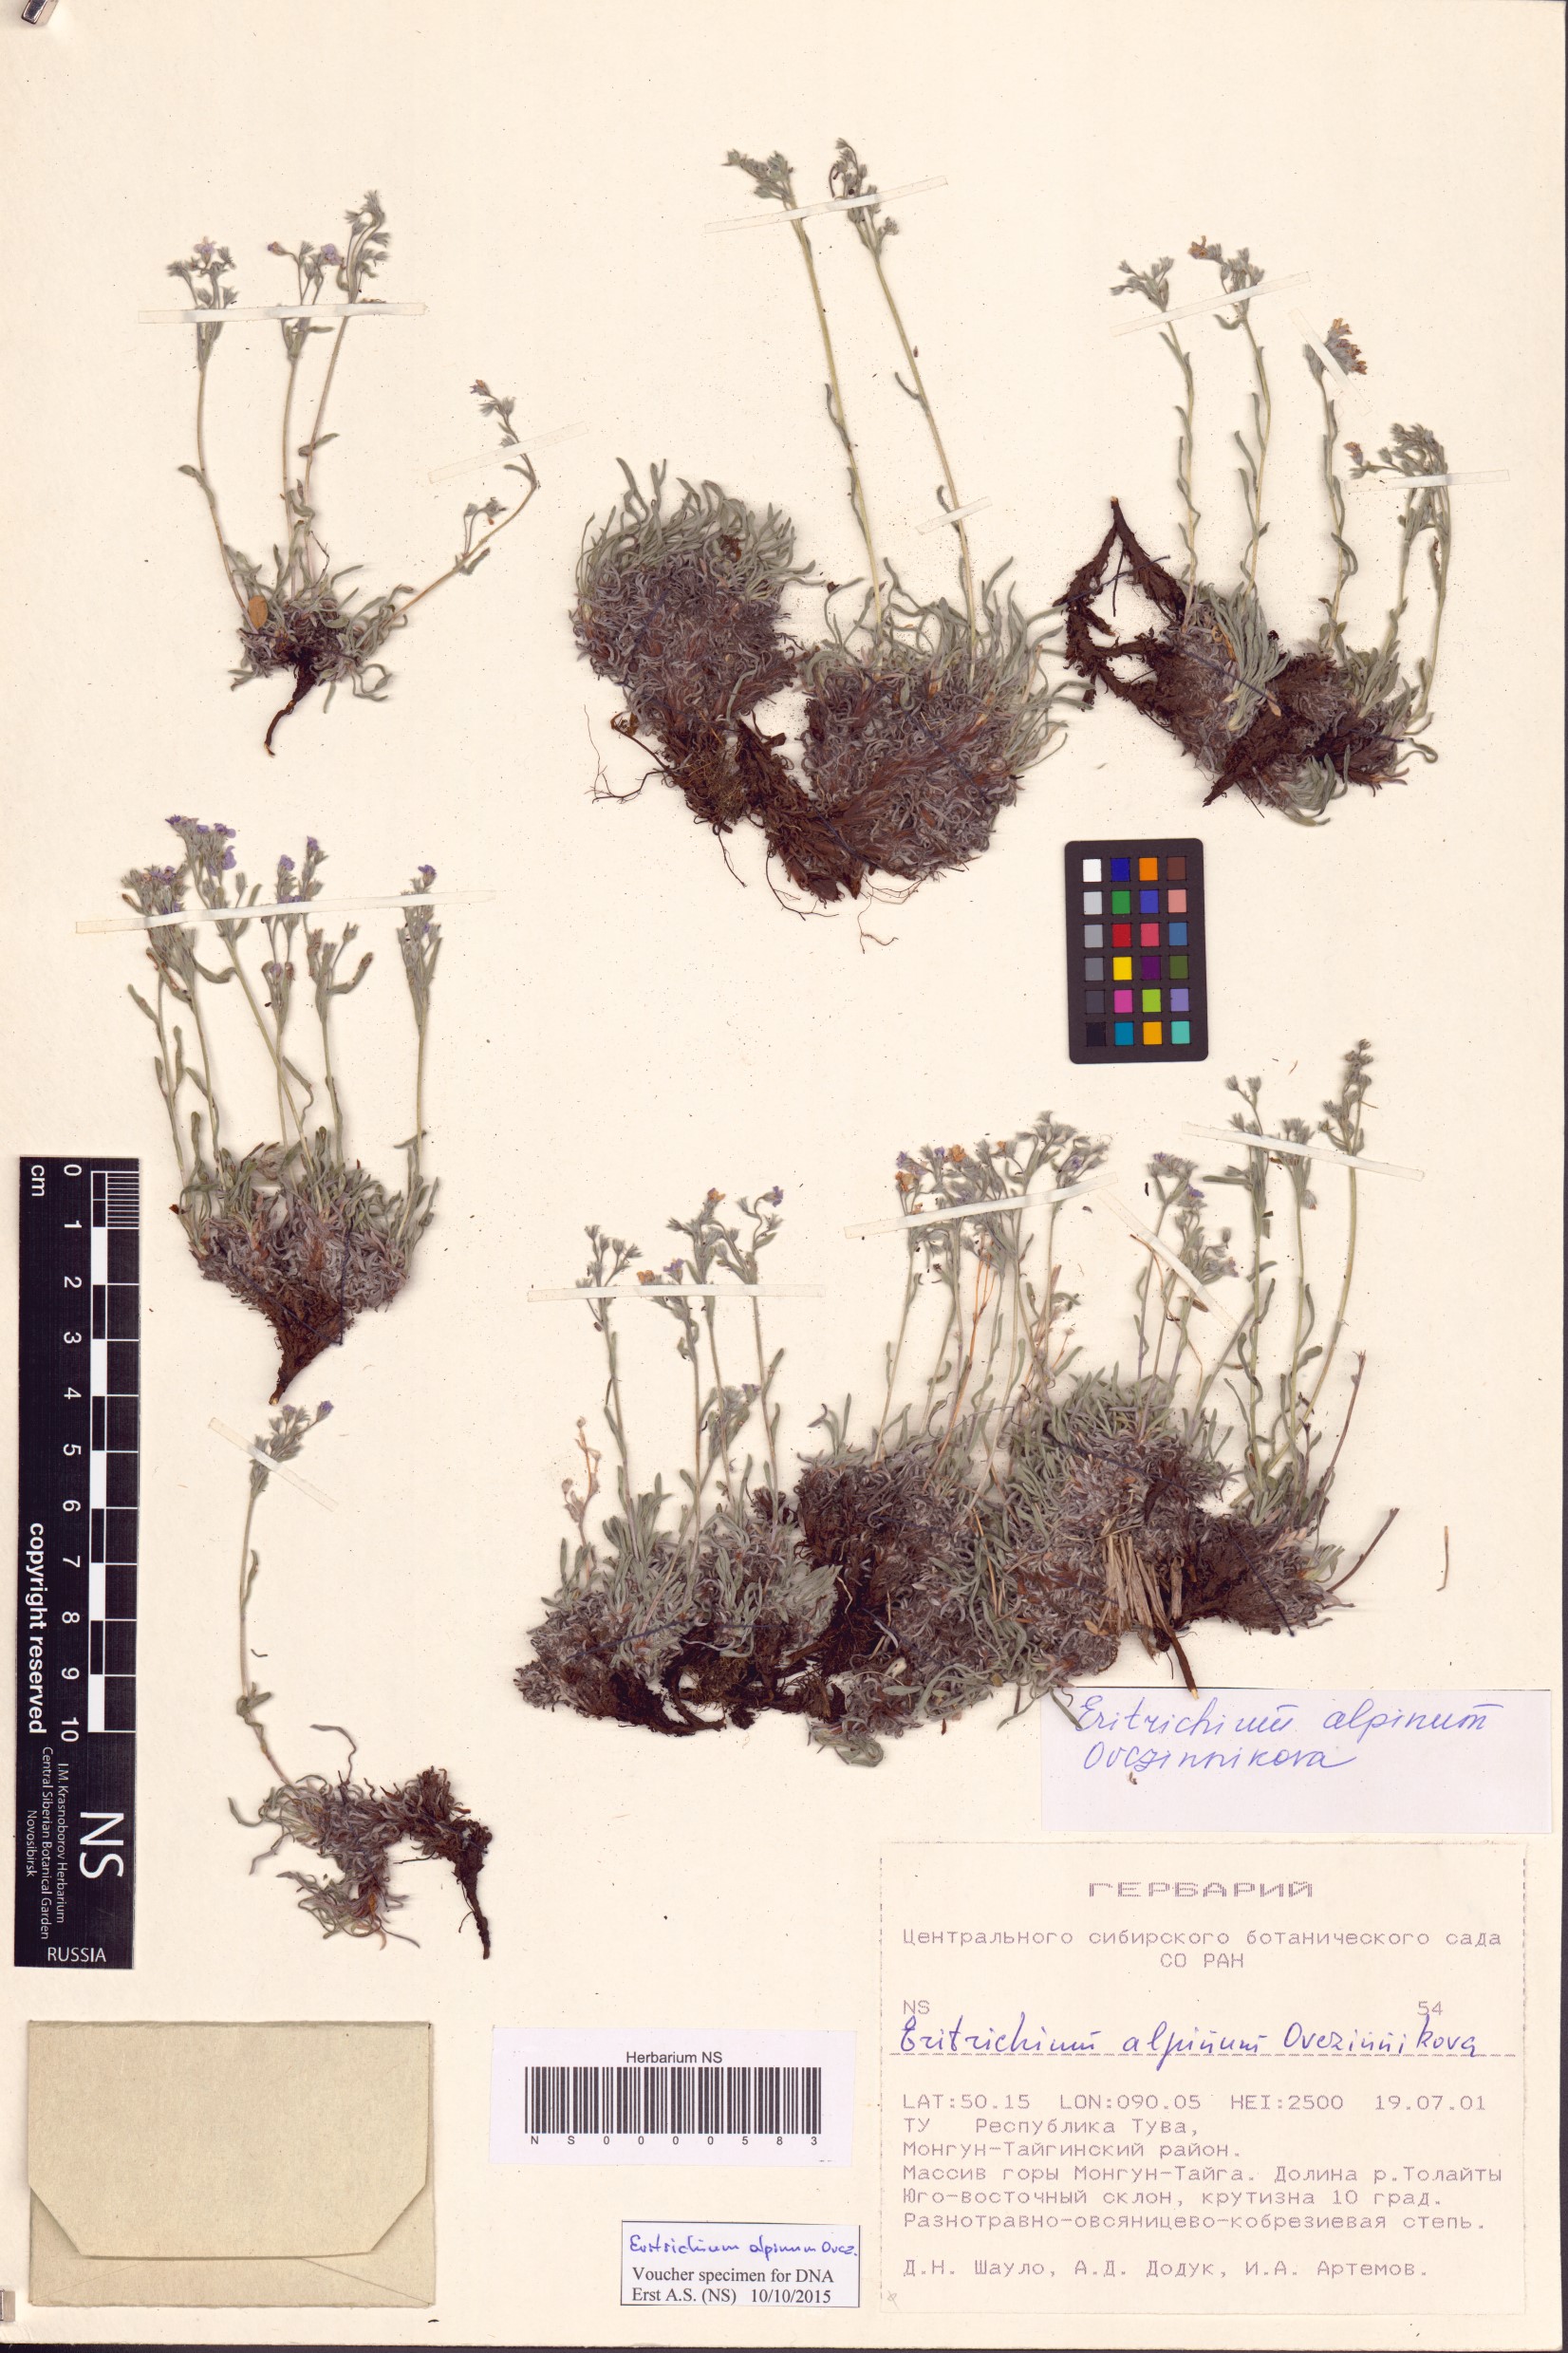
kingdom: Plantae
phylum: Tracheophyta
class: Magnoliopsida
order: Boraginales
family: Boraginaceae
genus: Eritrichium
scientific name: Eritrichium alpinum
